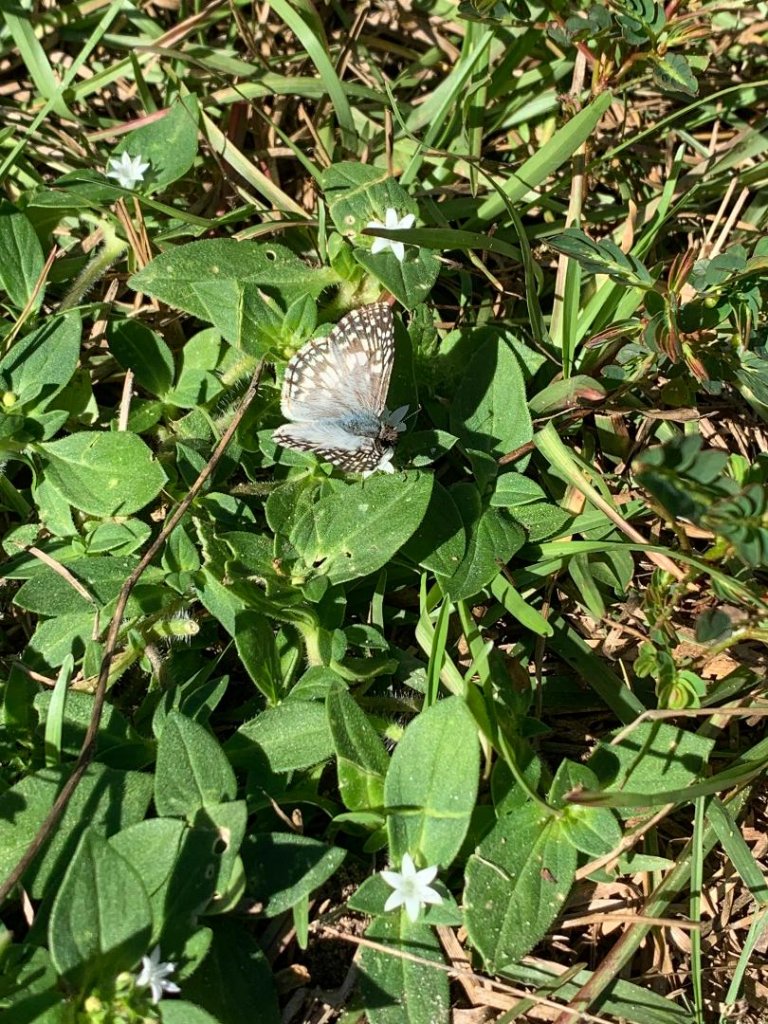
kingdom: Animalia
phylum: Arthropoda
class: Insecta
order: Lepidoptera
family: Hesperiidae
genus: Pyrgus
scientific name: Pyrgus oileus
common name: Tropical Checkered-Skipper
